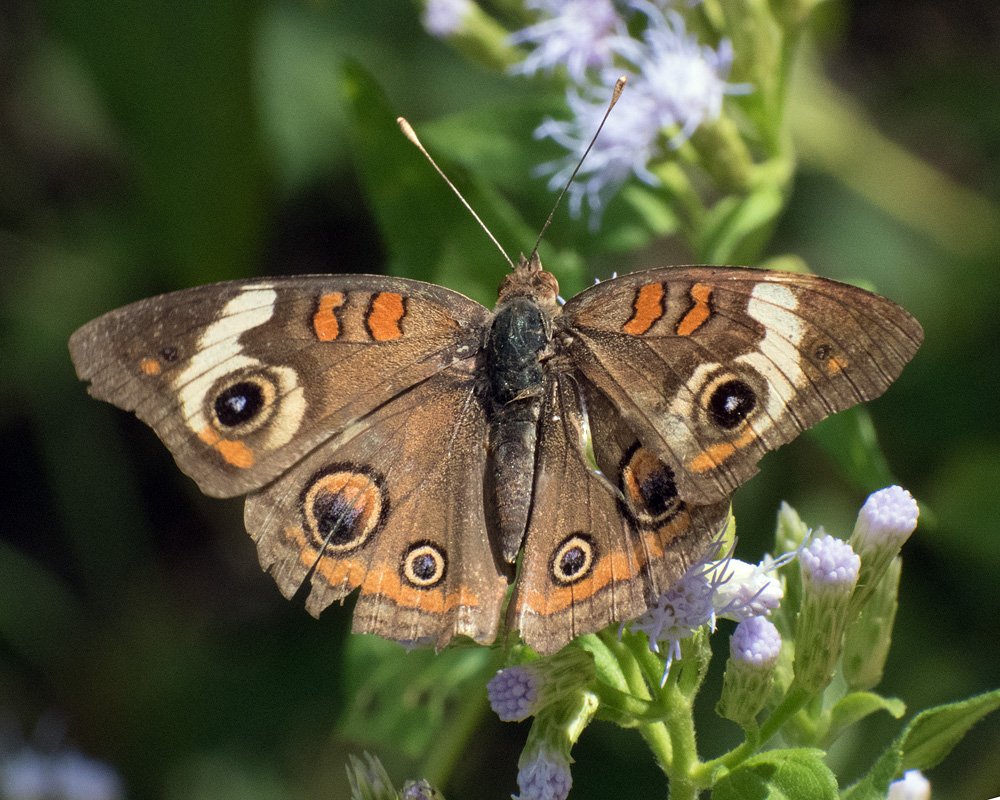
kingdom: Animalia
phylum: Arthropoda
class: Insecta
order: Lepidoptera
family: Nymphalidae
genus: Junonia
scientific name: Junonia coenia
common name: Common Buckeye
